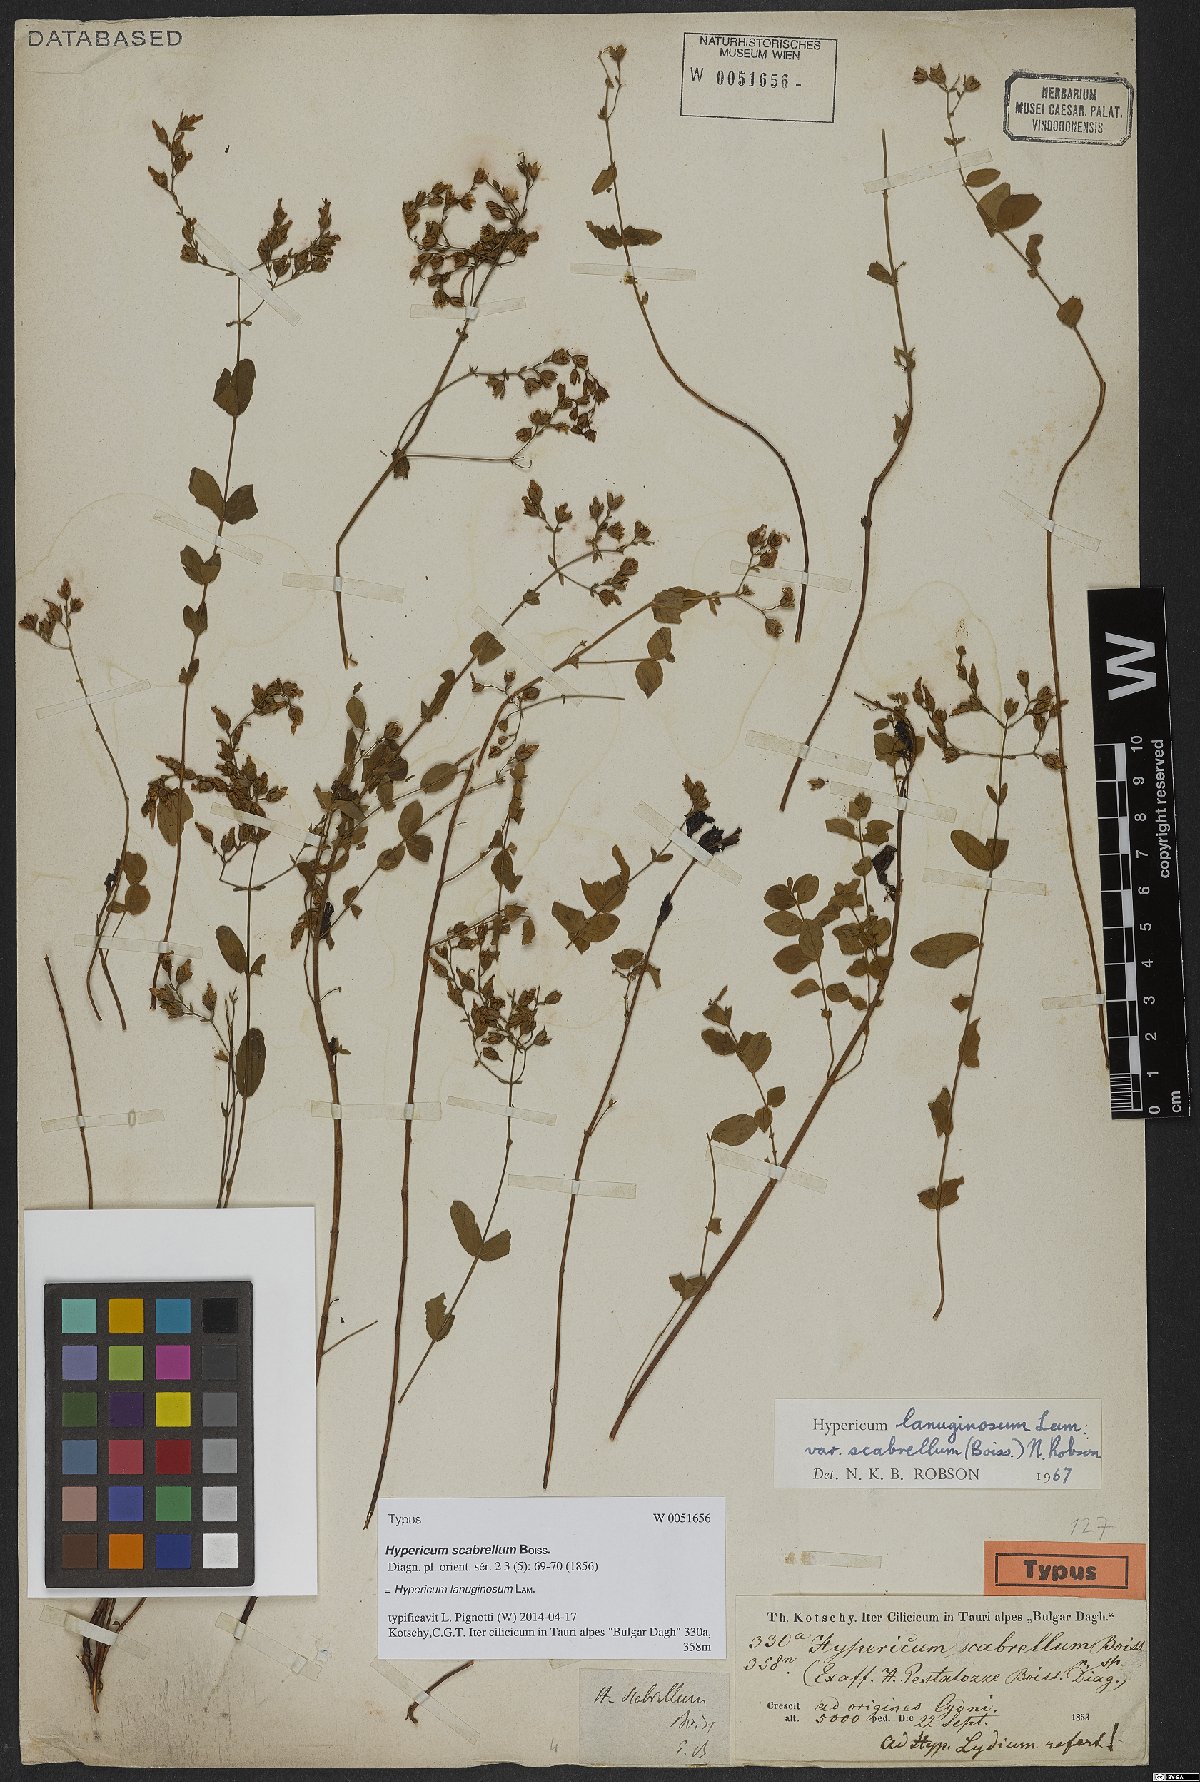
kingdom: Plantae
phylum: Tracheophyta
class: Magnoliopsida
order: Malpighiales
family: Hypericaceae
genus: Hypericum
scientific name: Hypericum lanuginosum
